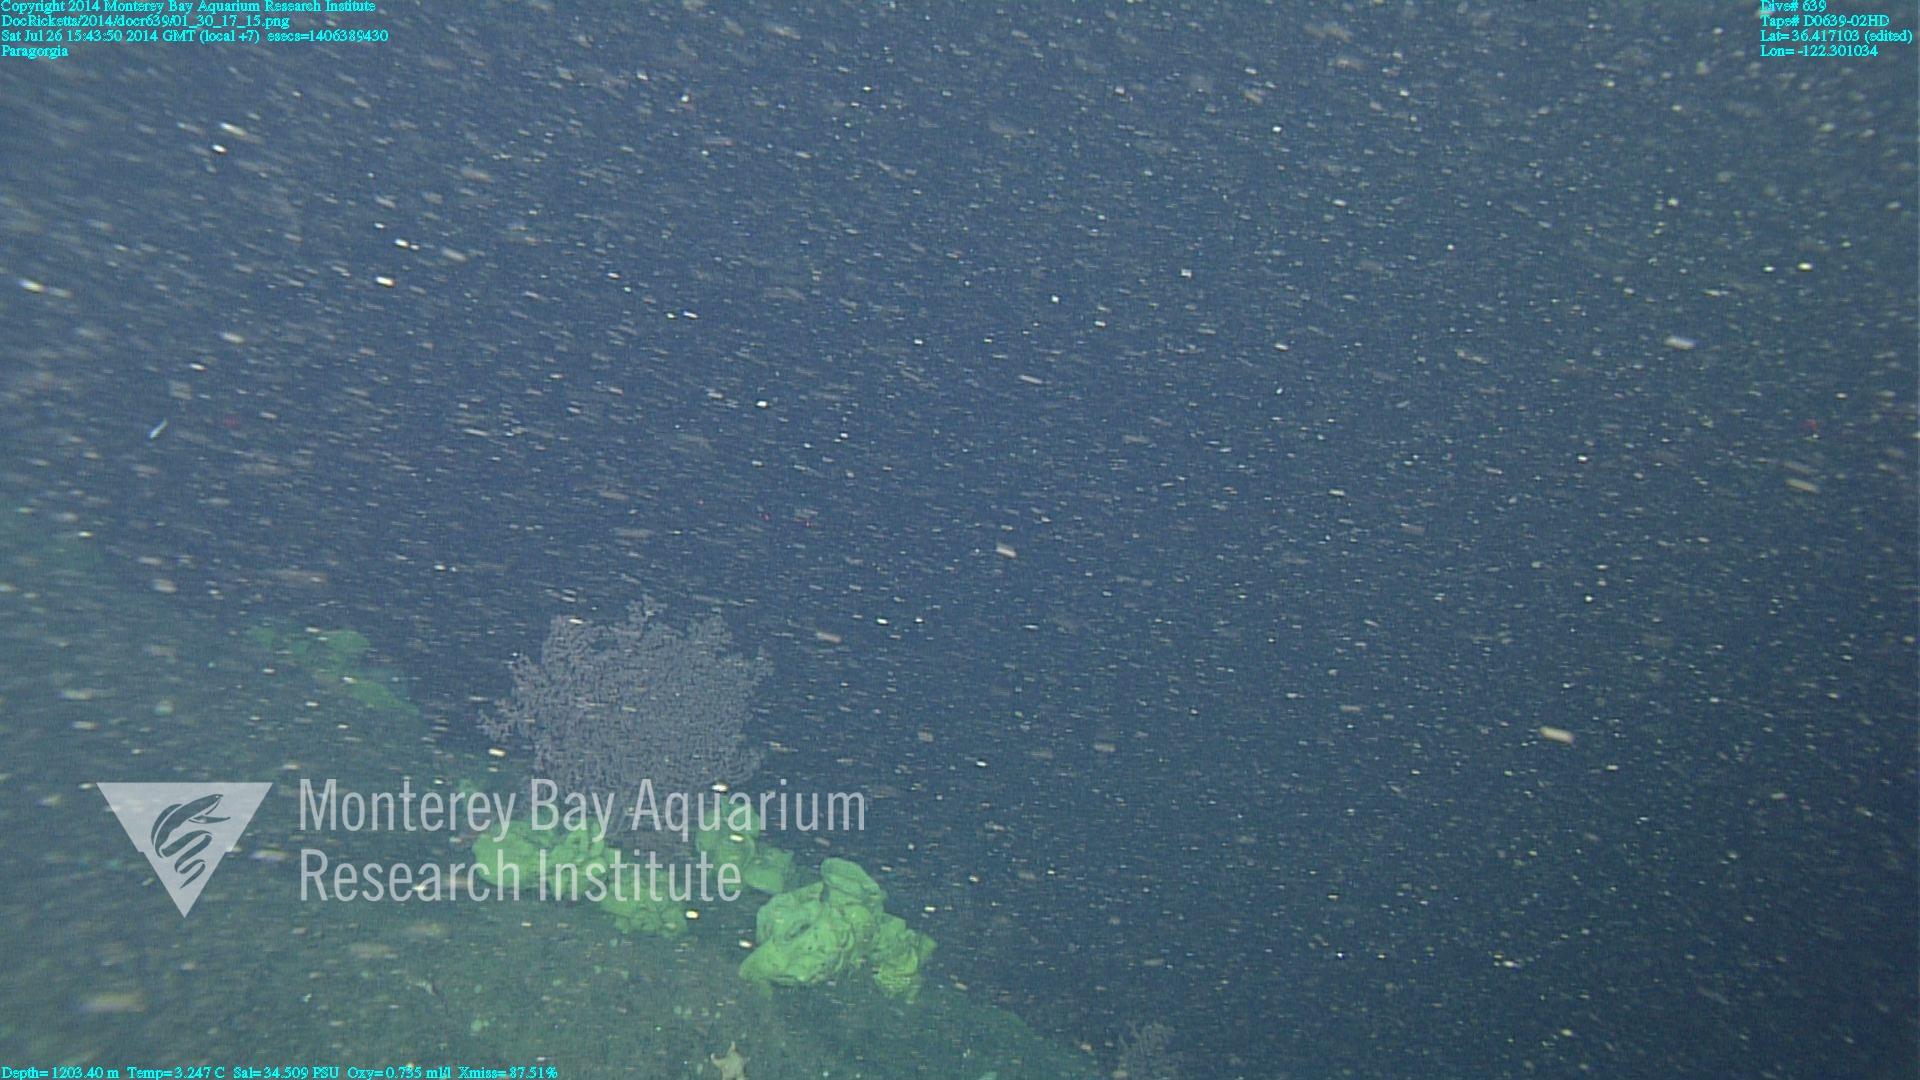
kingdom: Animalia
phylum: Cnidaria
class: Anthozoa
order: Scleralcyonacea
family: Coralliidae
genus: Paragorgia
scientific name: Paragorgia
